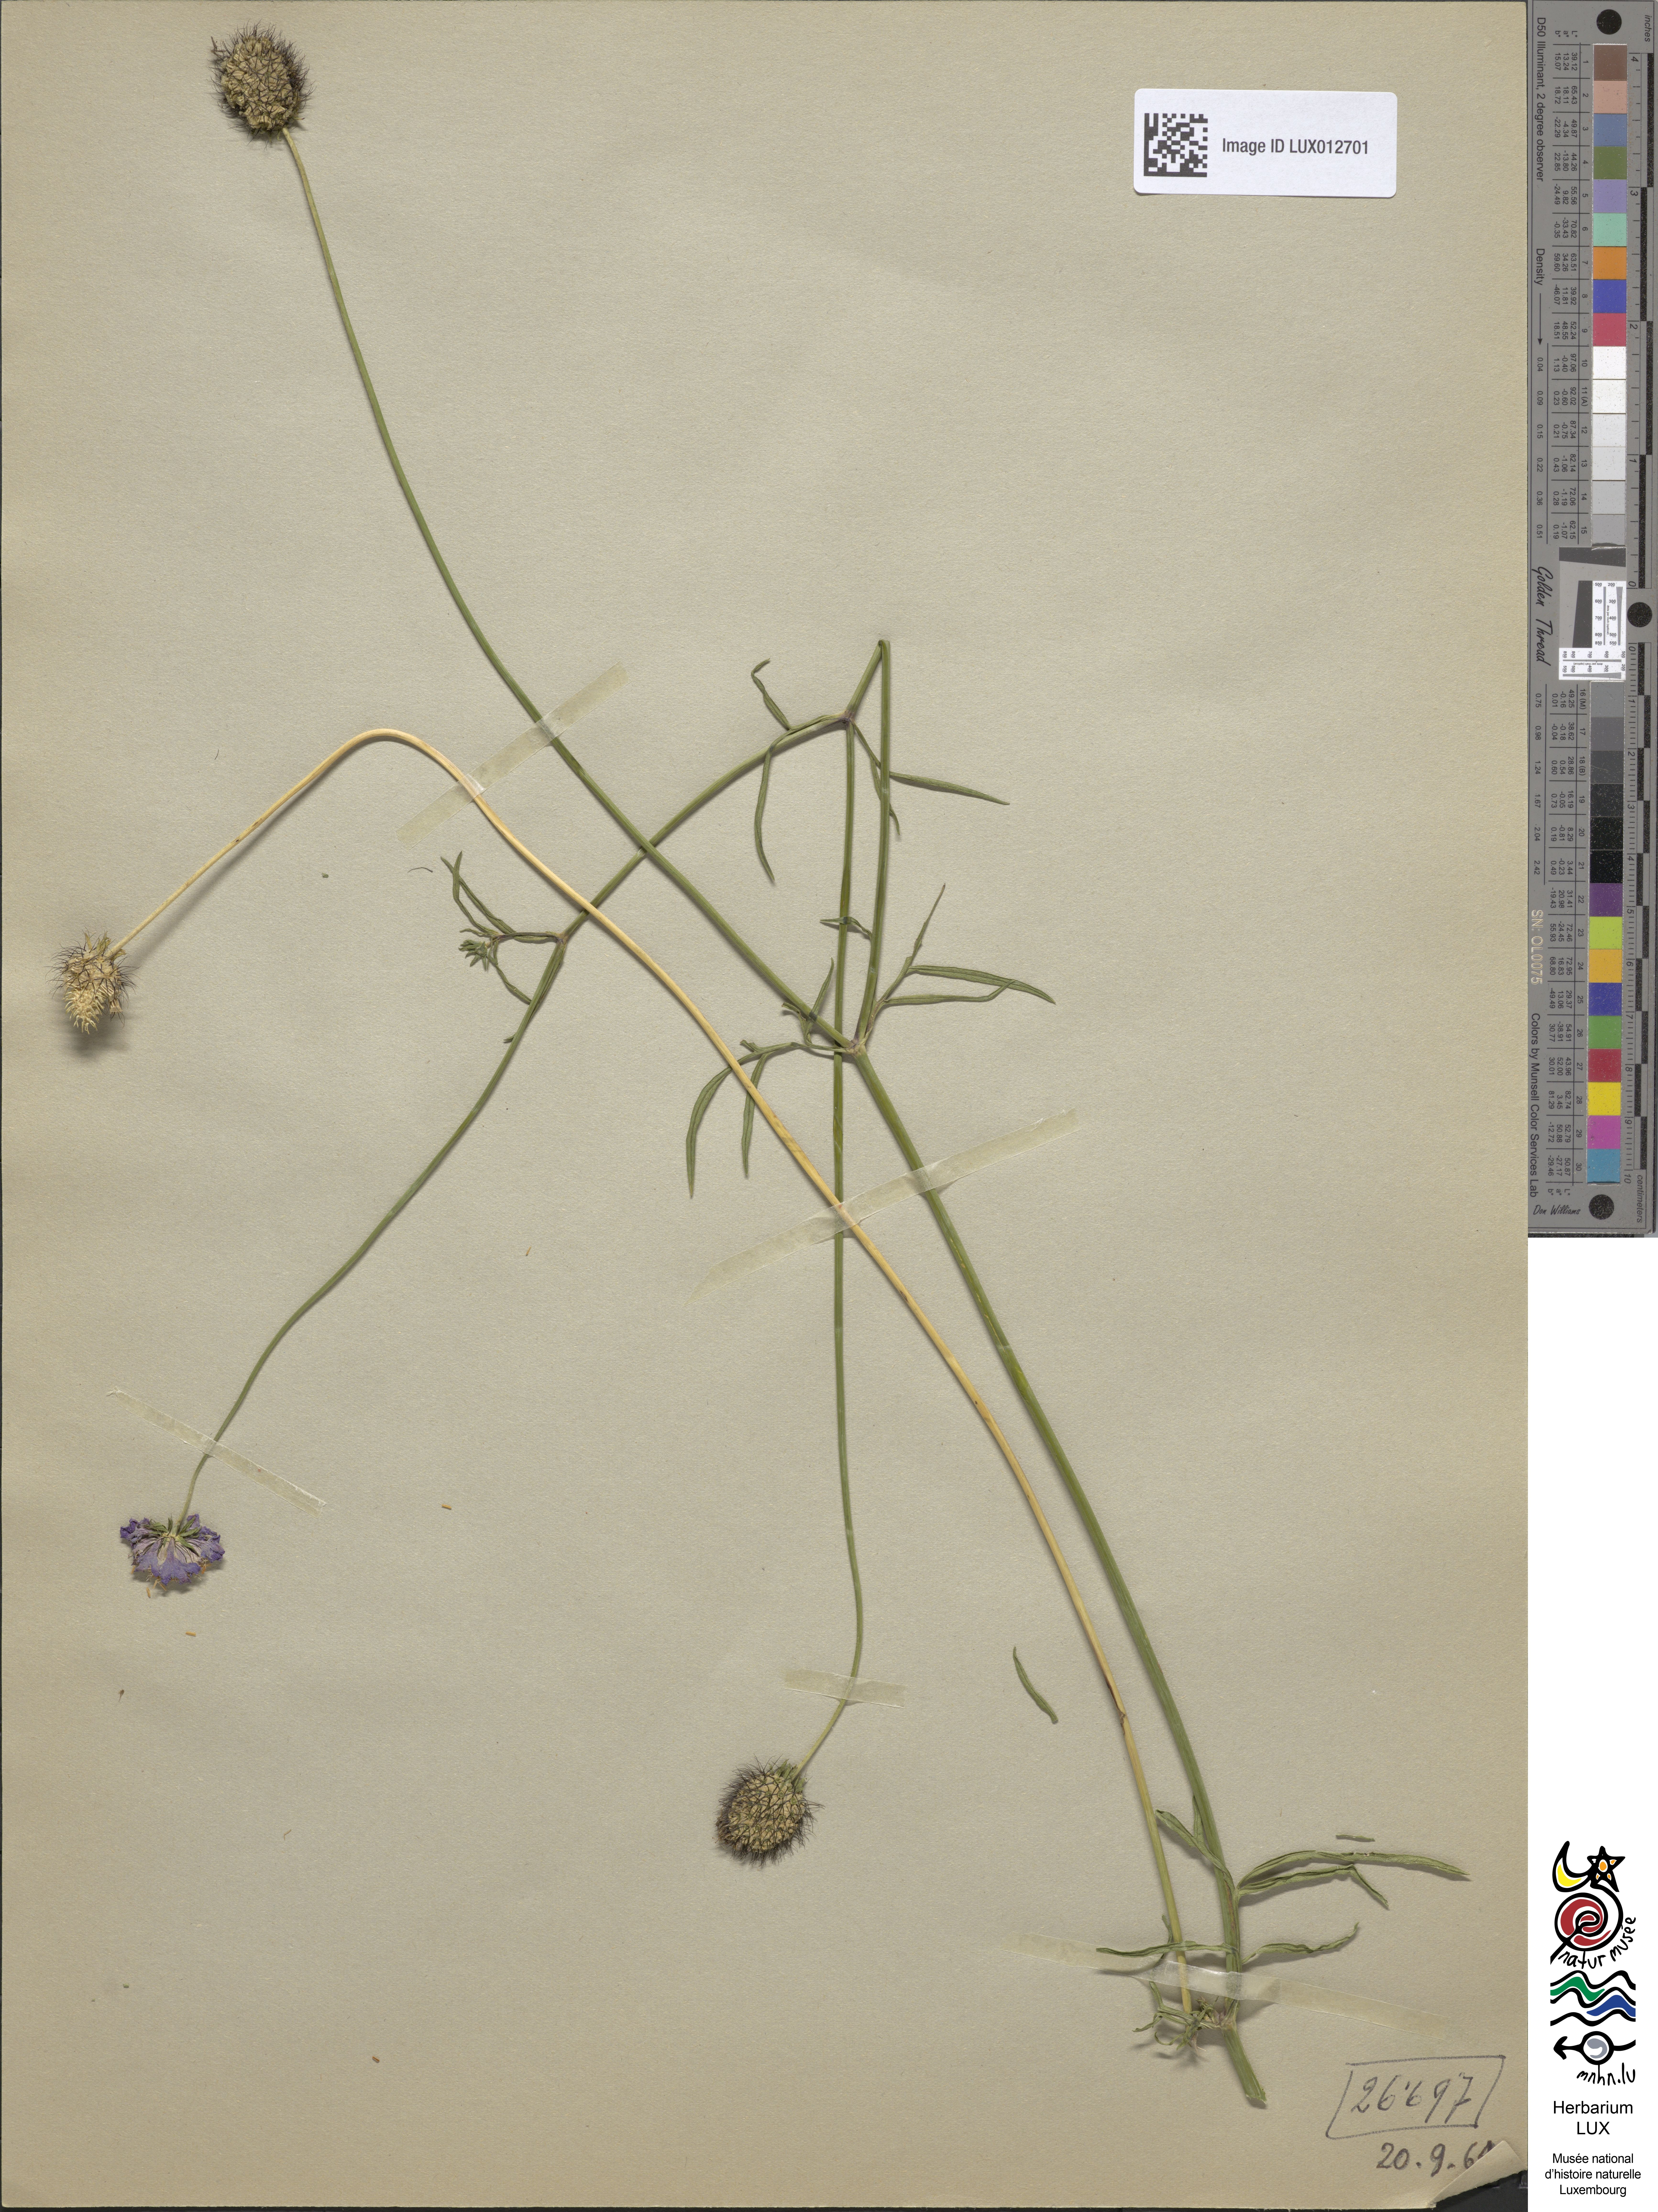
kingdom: Plantae
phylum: Tracheophyta
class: Magnoliopsida
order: Dipsacales
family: Caprifoliaceae
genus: Scabiosa
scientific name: Scabiosa columbaria
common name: Small scabious
